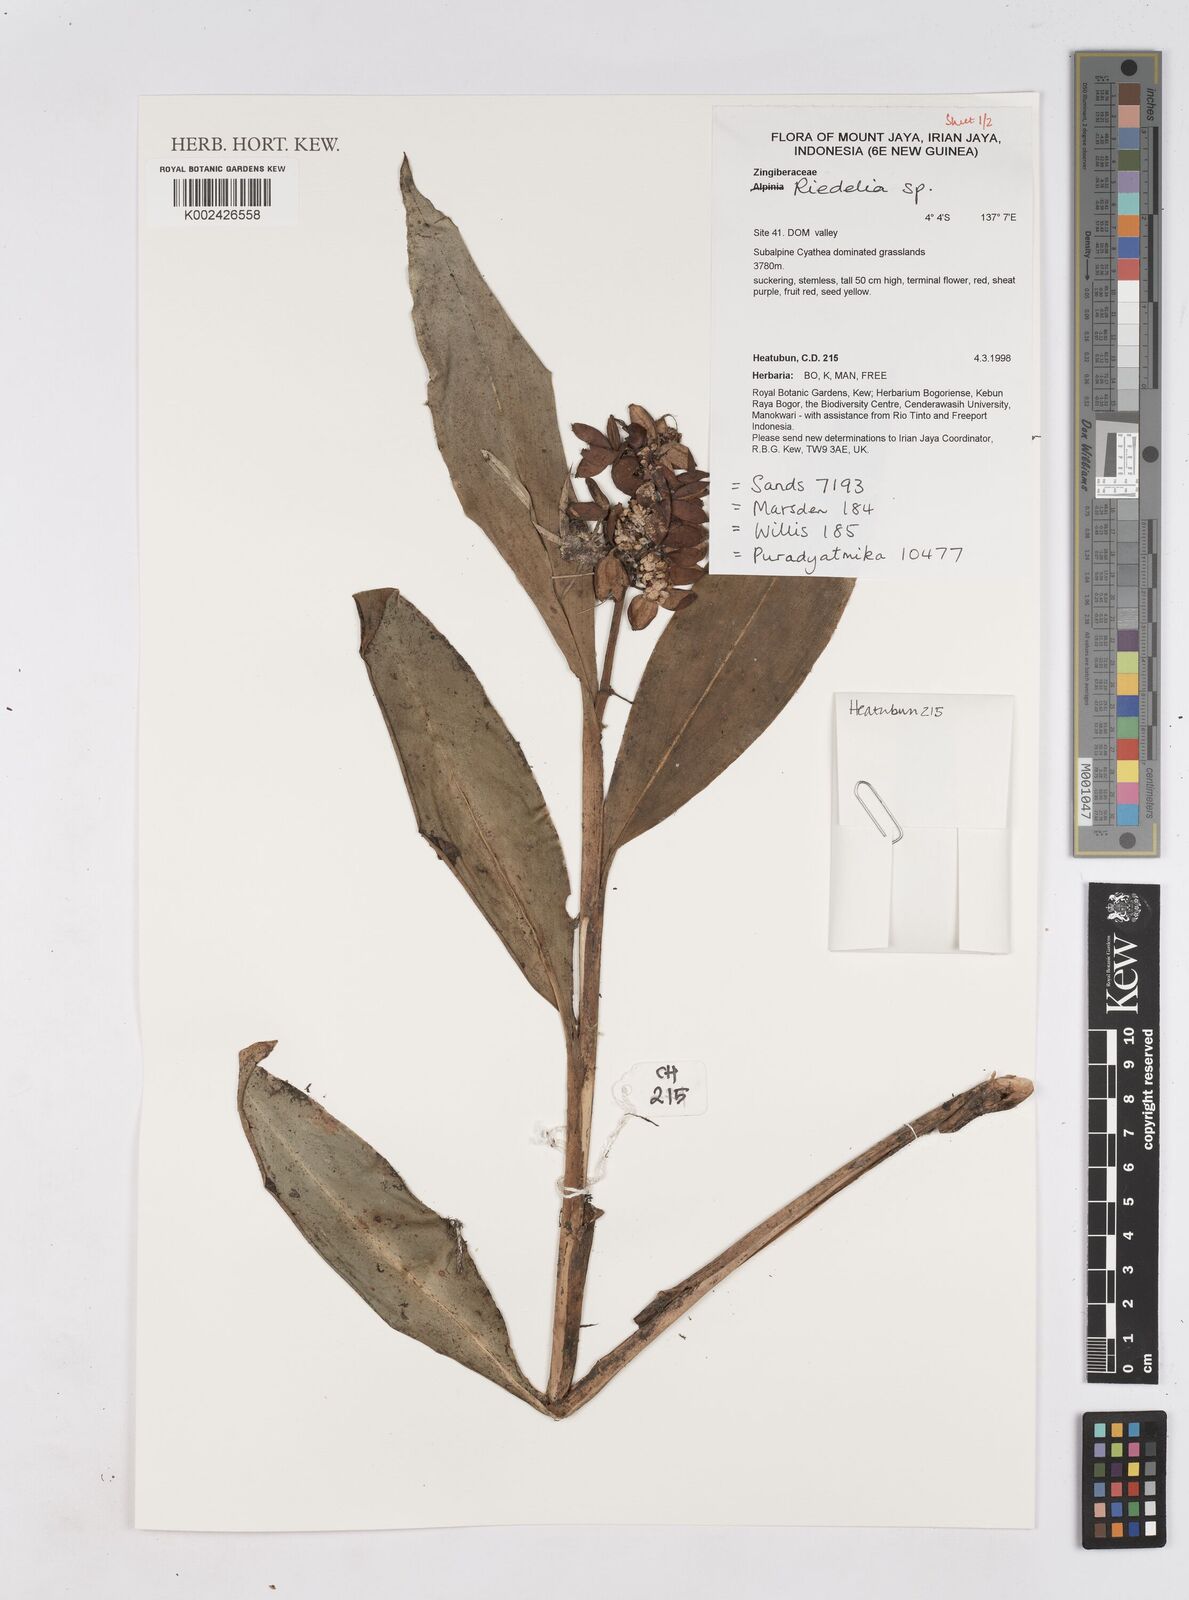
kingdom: Plantae
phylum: Tracheophyta
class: Liliopsida
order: Zingiberales
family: Zingiberaceae
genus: Riedelia
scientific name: Riedelia
